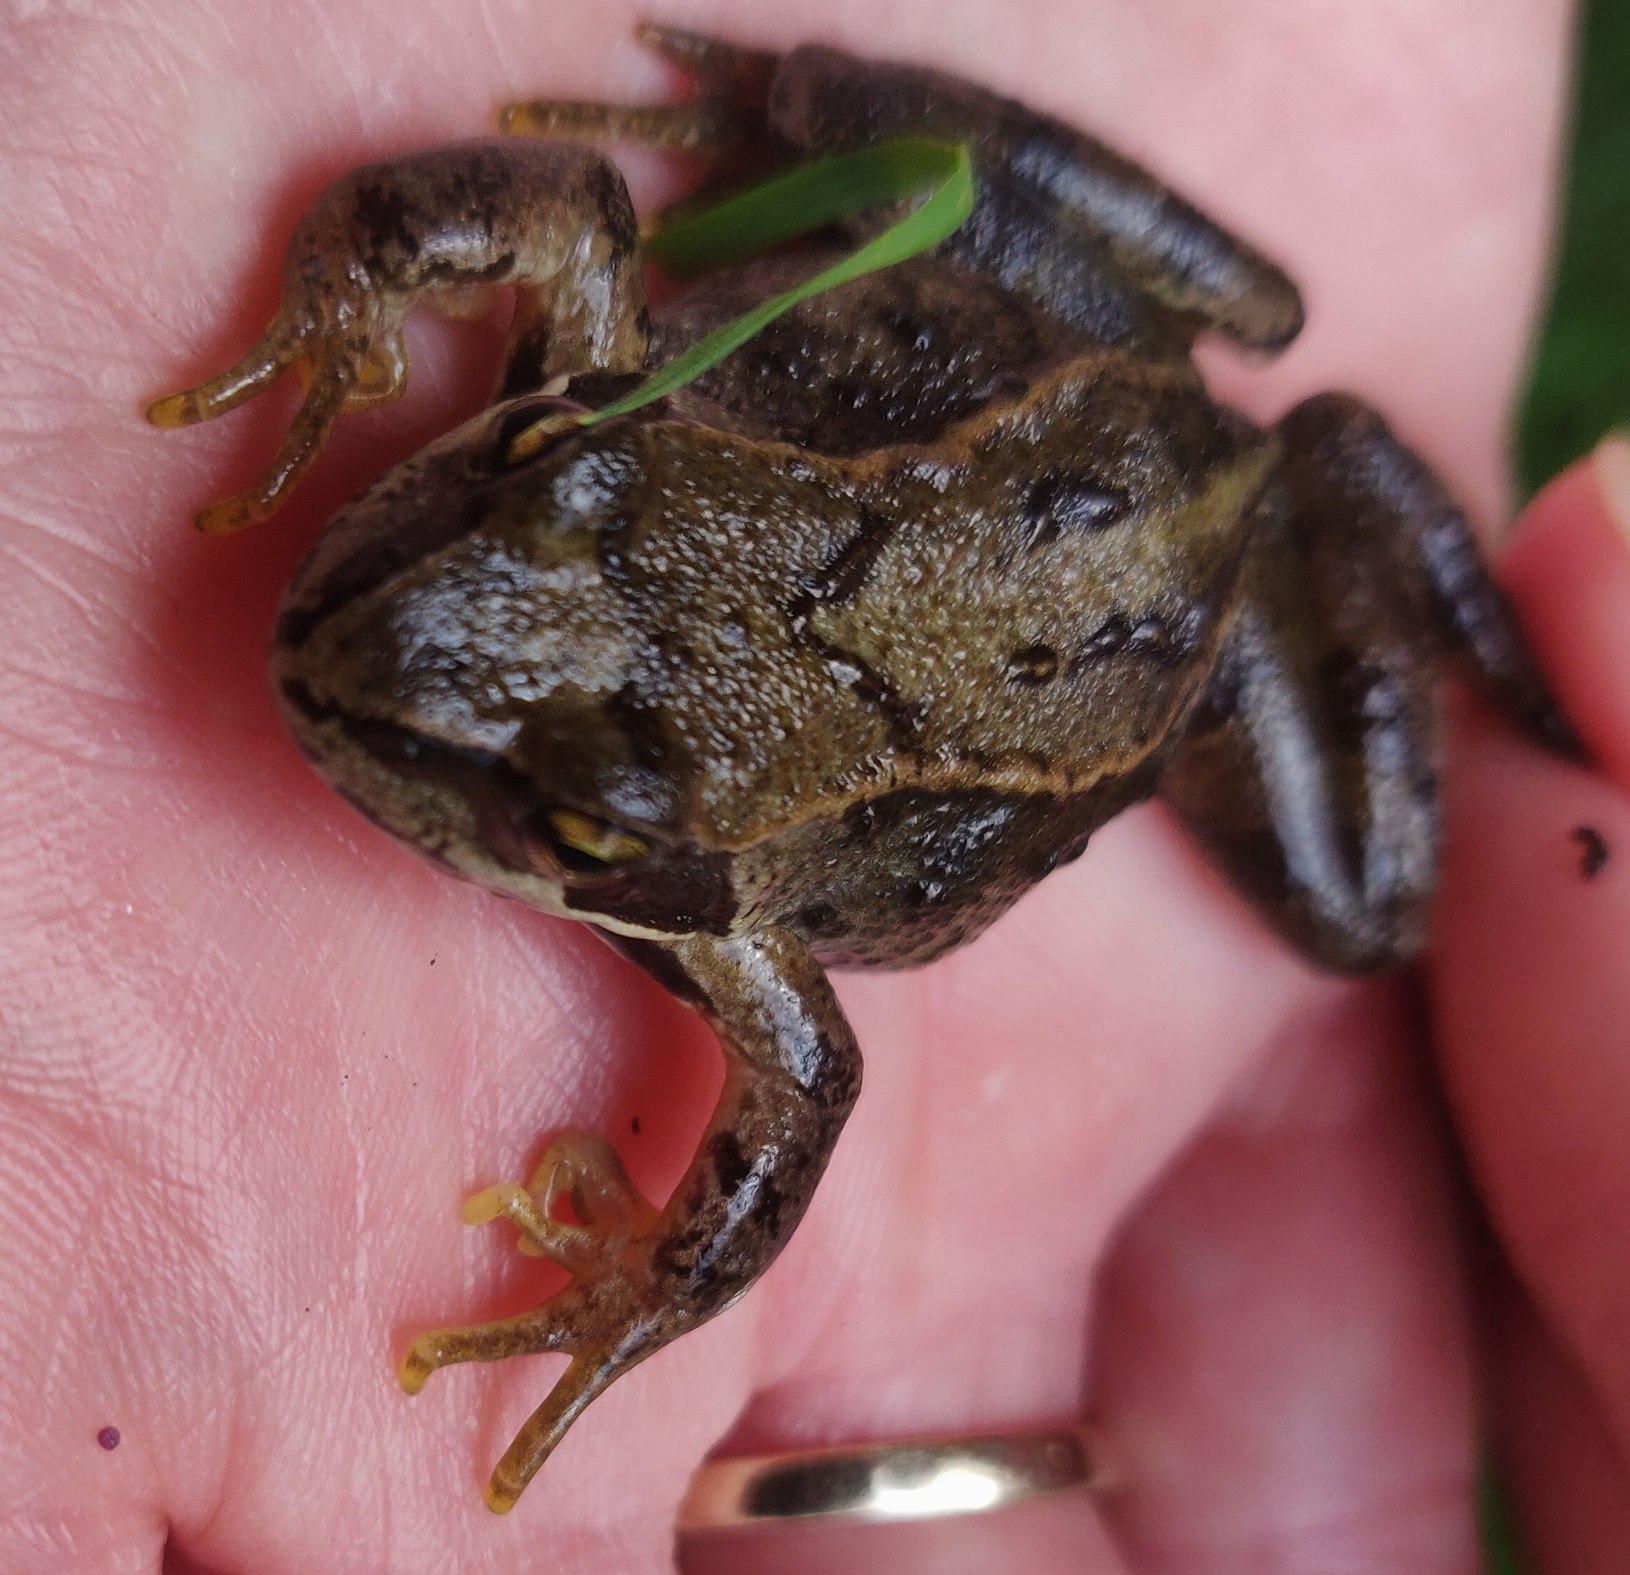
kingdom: Animalia
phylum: Chordata
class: Amphibia
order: Anura
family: Ranidae
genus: Rana
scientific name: Rana temporaria
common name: Butsnudet frø
